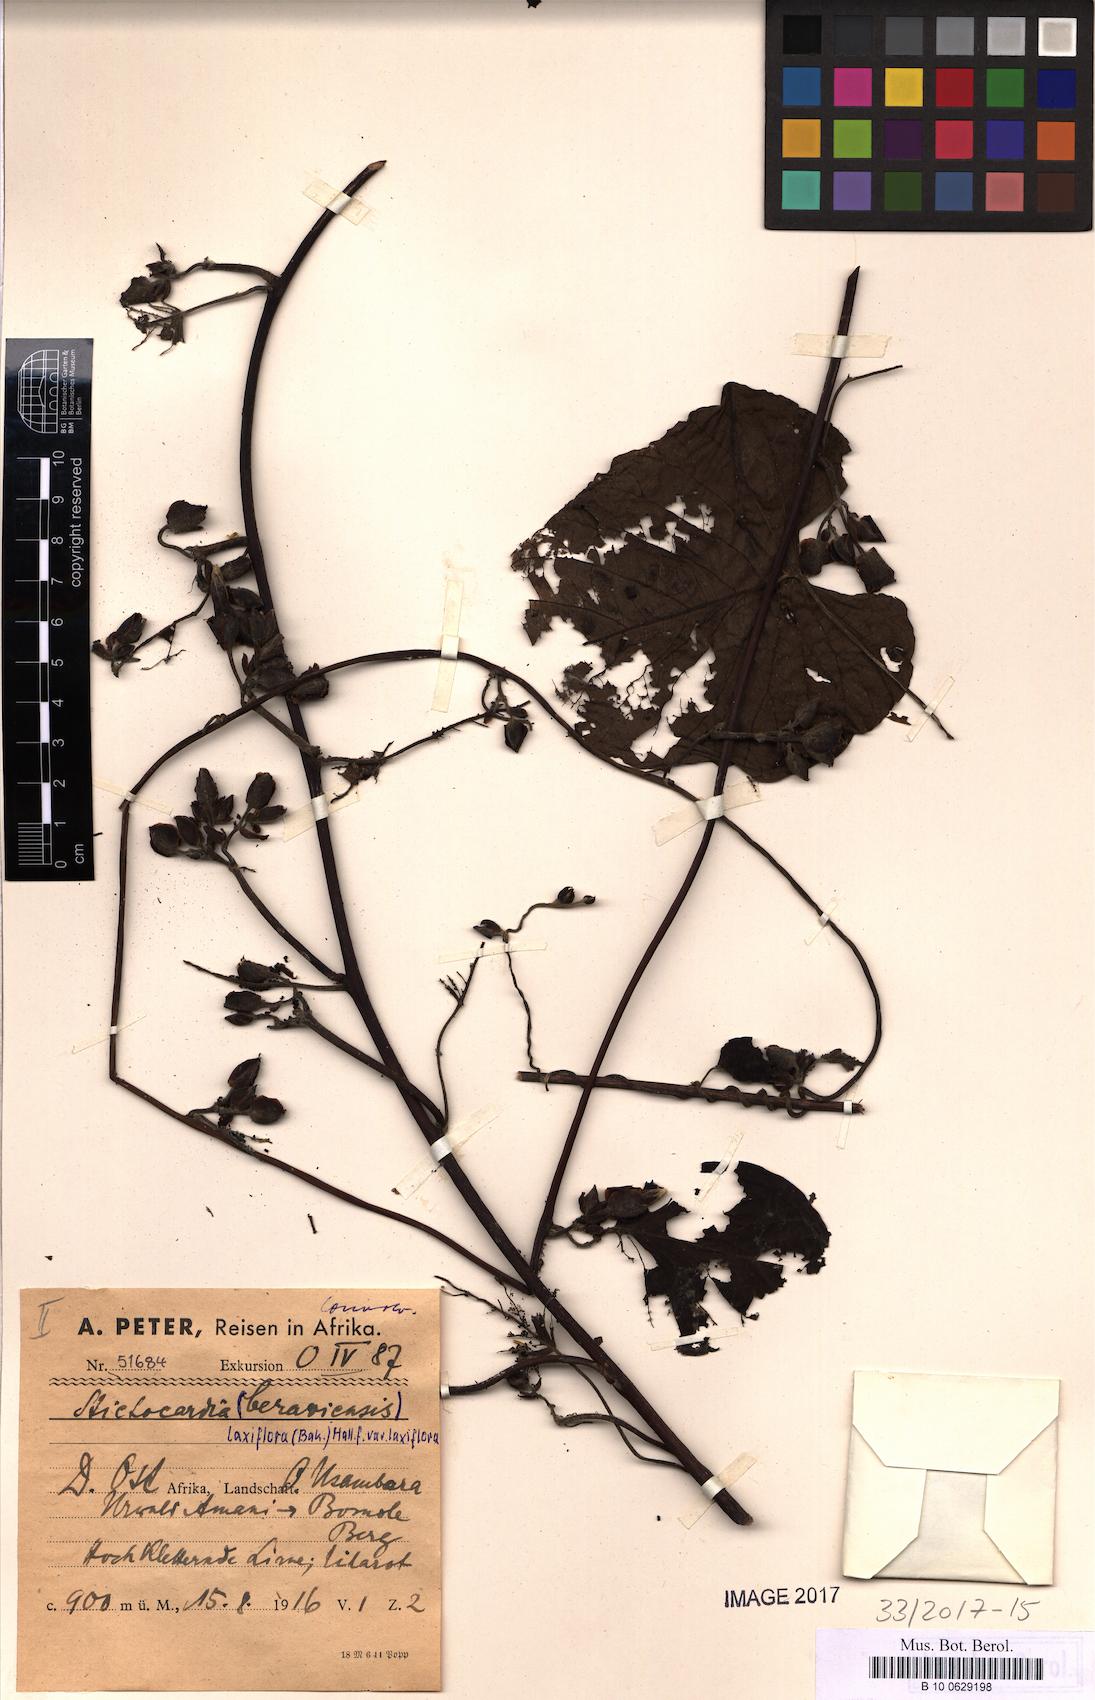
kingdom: Plantae
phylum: Tracheophyta
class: Magnoliopsida
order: Solanales
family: Convolvulaceae
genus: Stictocardia
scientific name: Stictocardia laxiflora
